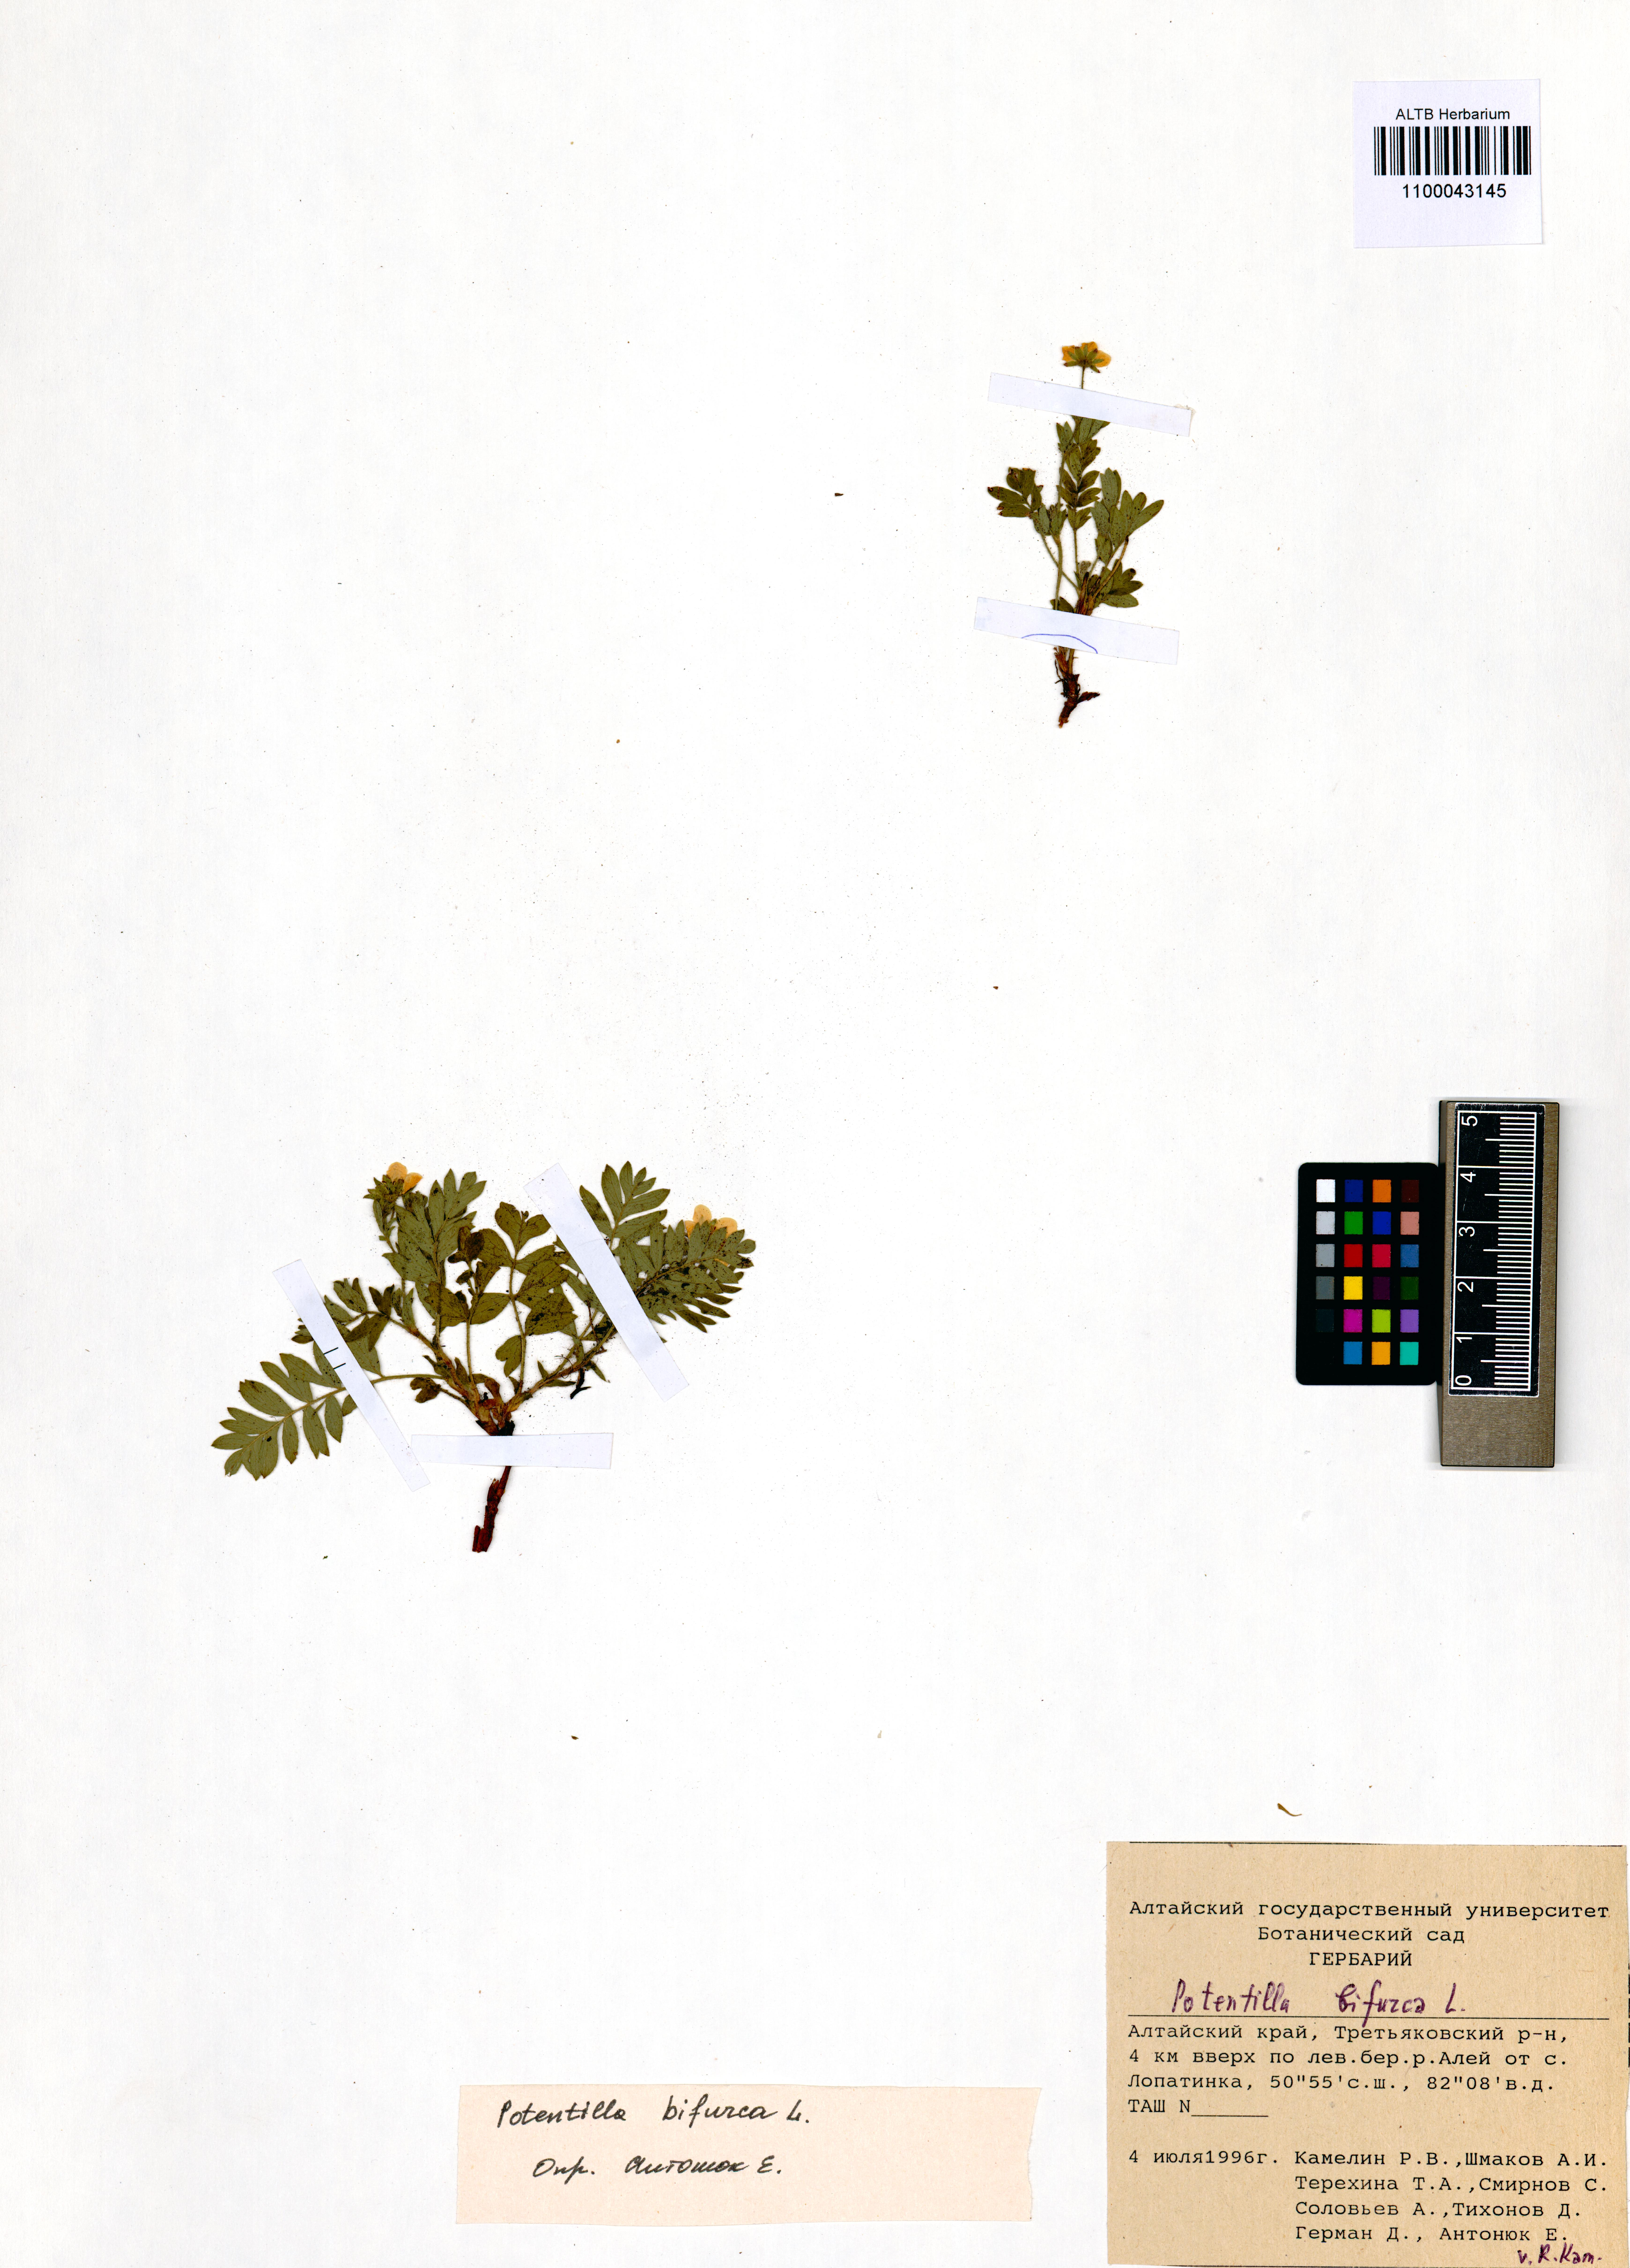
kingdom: Plantae
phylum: Tracheophyta
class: Magnoliopsida
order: Rosales
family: Rosaceae
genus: Sibbaldianthe
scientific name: Sibbaldianthe bifurca
